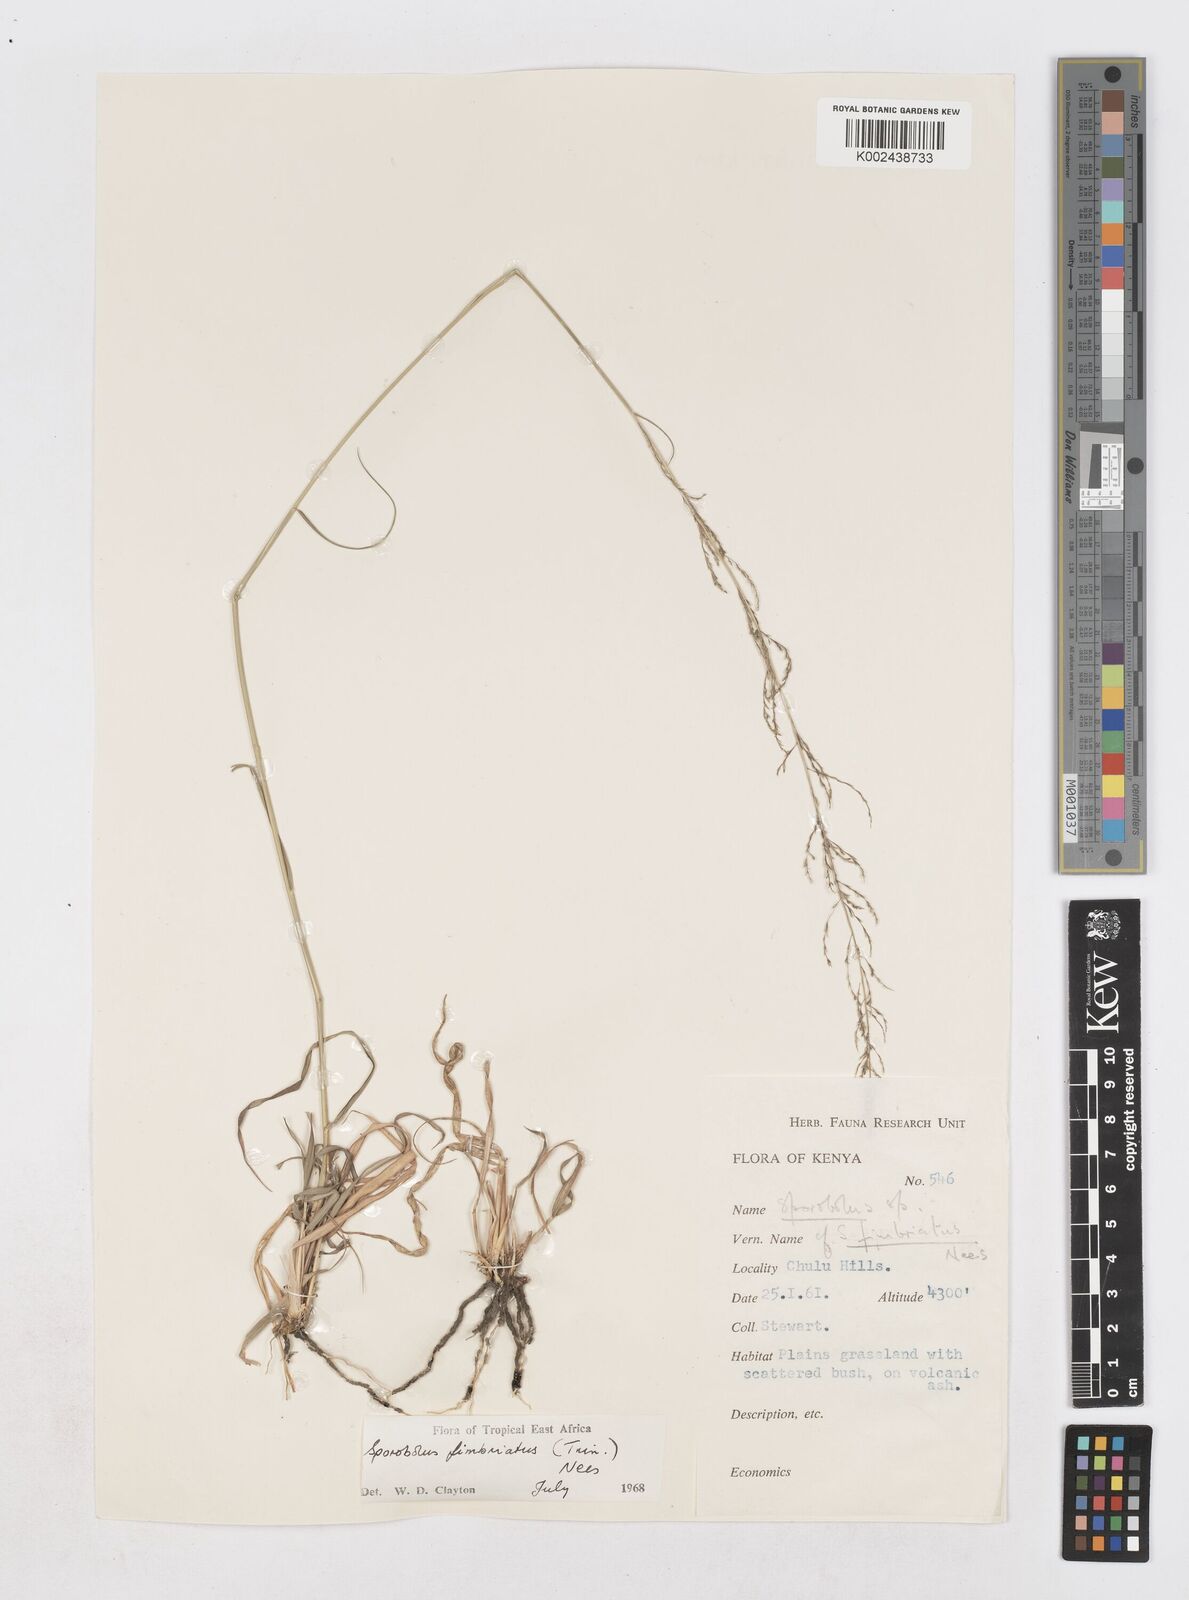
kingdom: Plantae
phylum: Tracheophyta
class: Liliopsida
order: Poales
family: Poaceae
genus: Sporobolus
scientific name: Sporobolus fimbriatus
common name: Fringed dropseed
